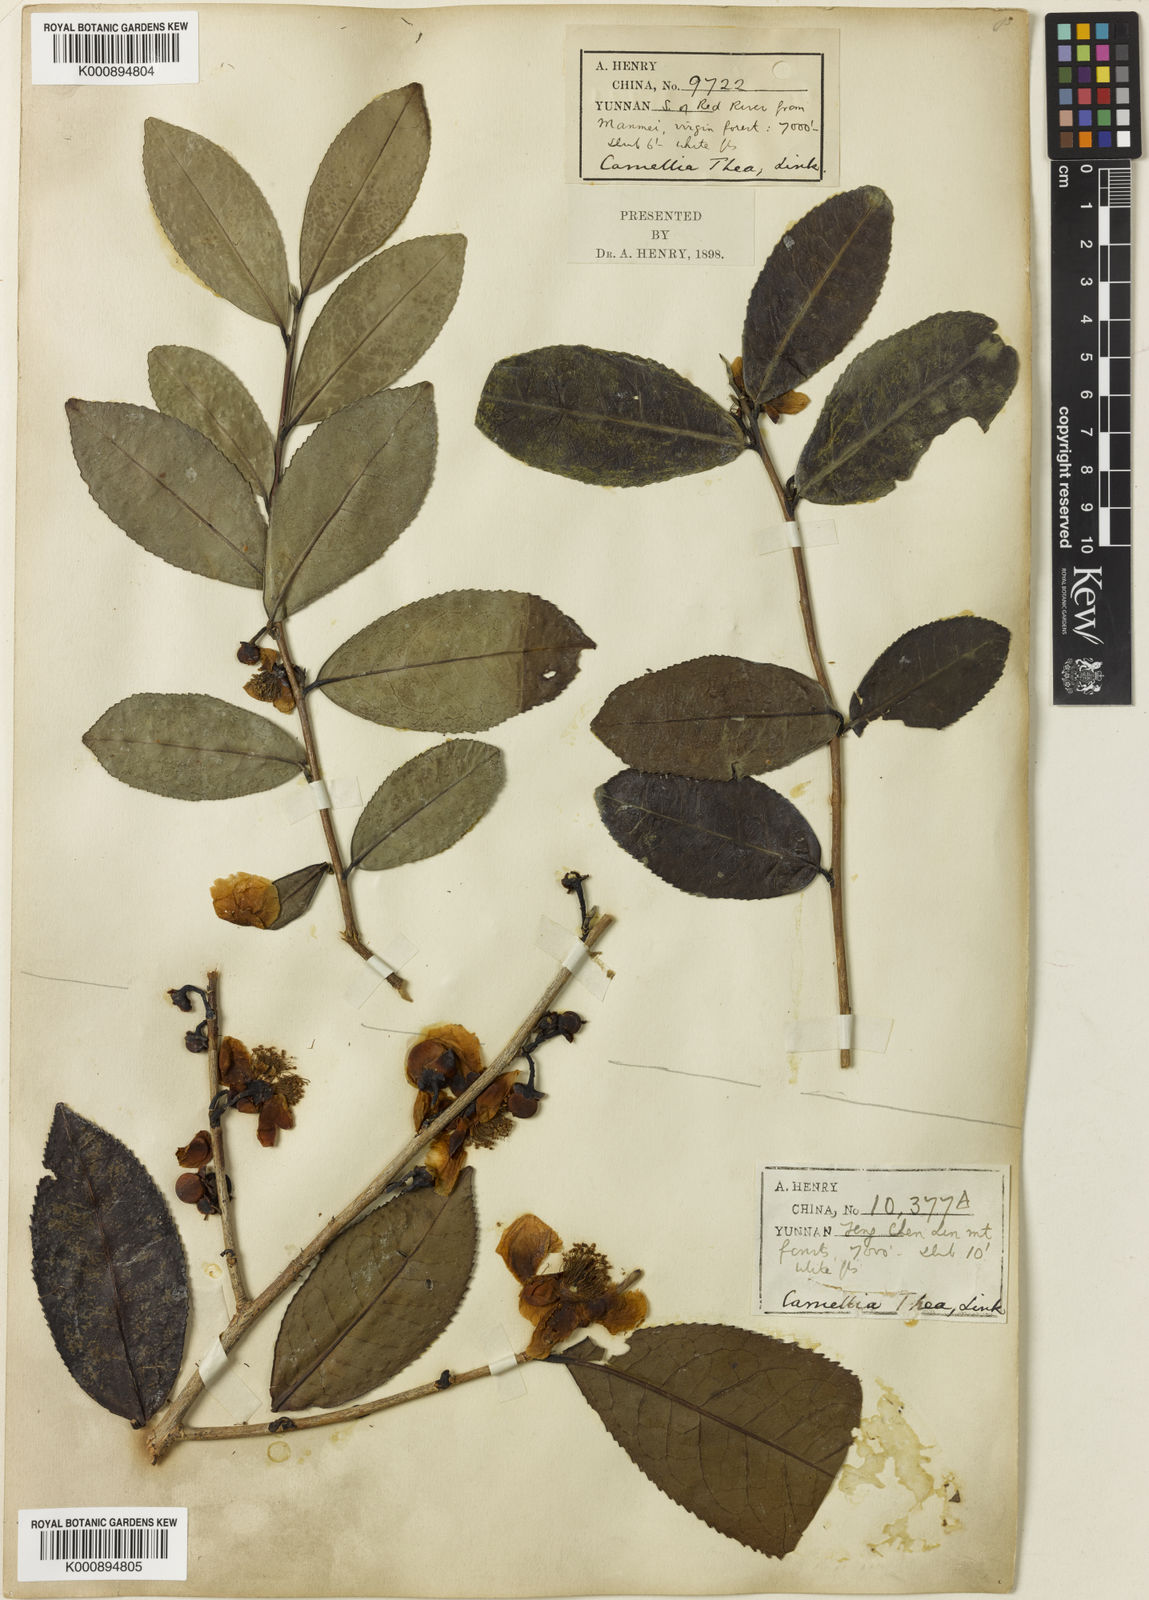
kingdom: Plantae
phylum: Tracheophyta
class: Magnoliopsida
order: Ericales
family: Theaceae
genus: Camellia
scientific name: Camellia sinensis
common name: Tea
